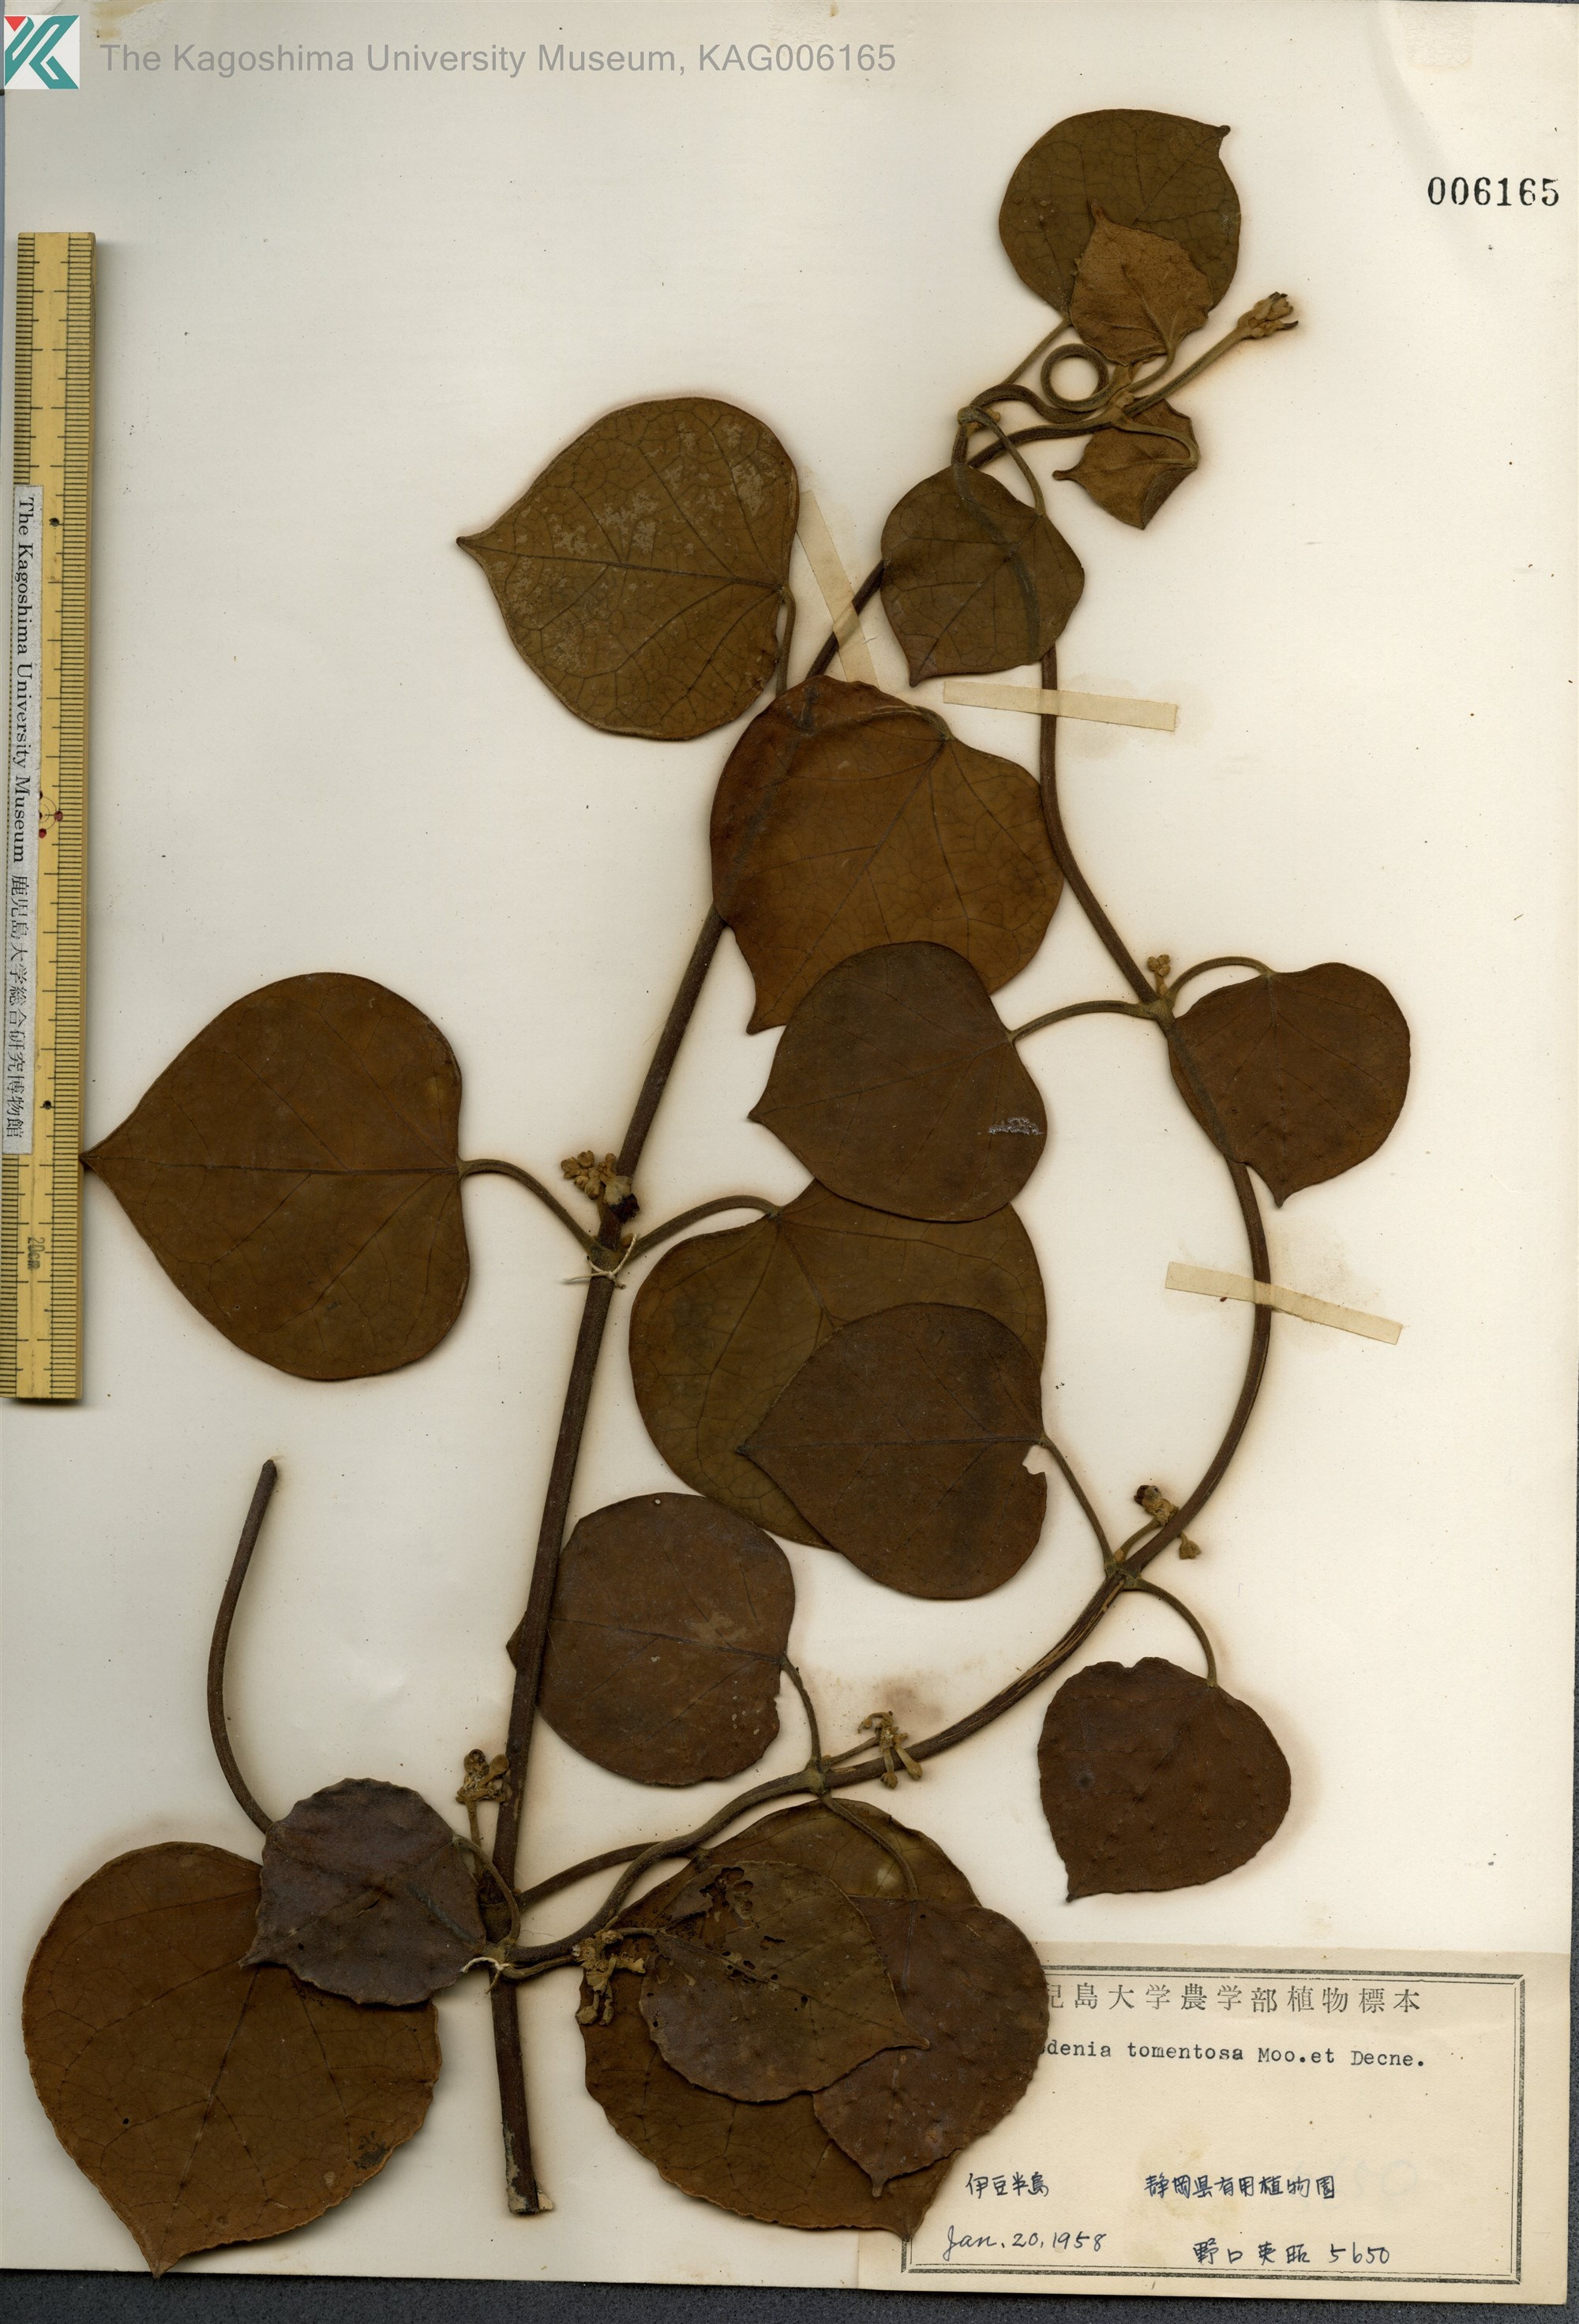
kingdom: Plantae
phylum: Tracheophyta
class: Magnoliopsida
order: Gentianales
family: Apocynaceae
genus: Sinomarsdenia
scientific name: Sinomarsdenia tomentosa
